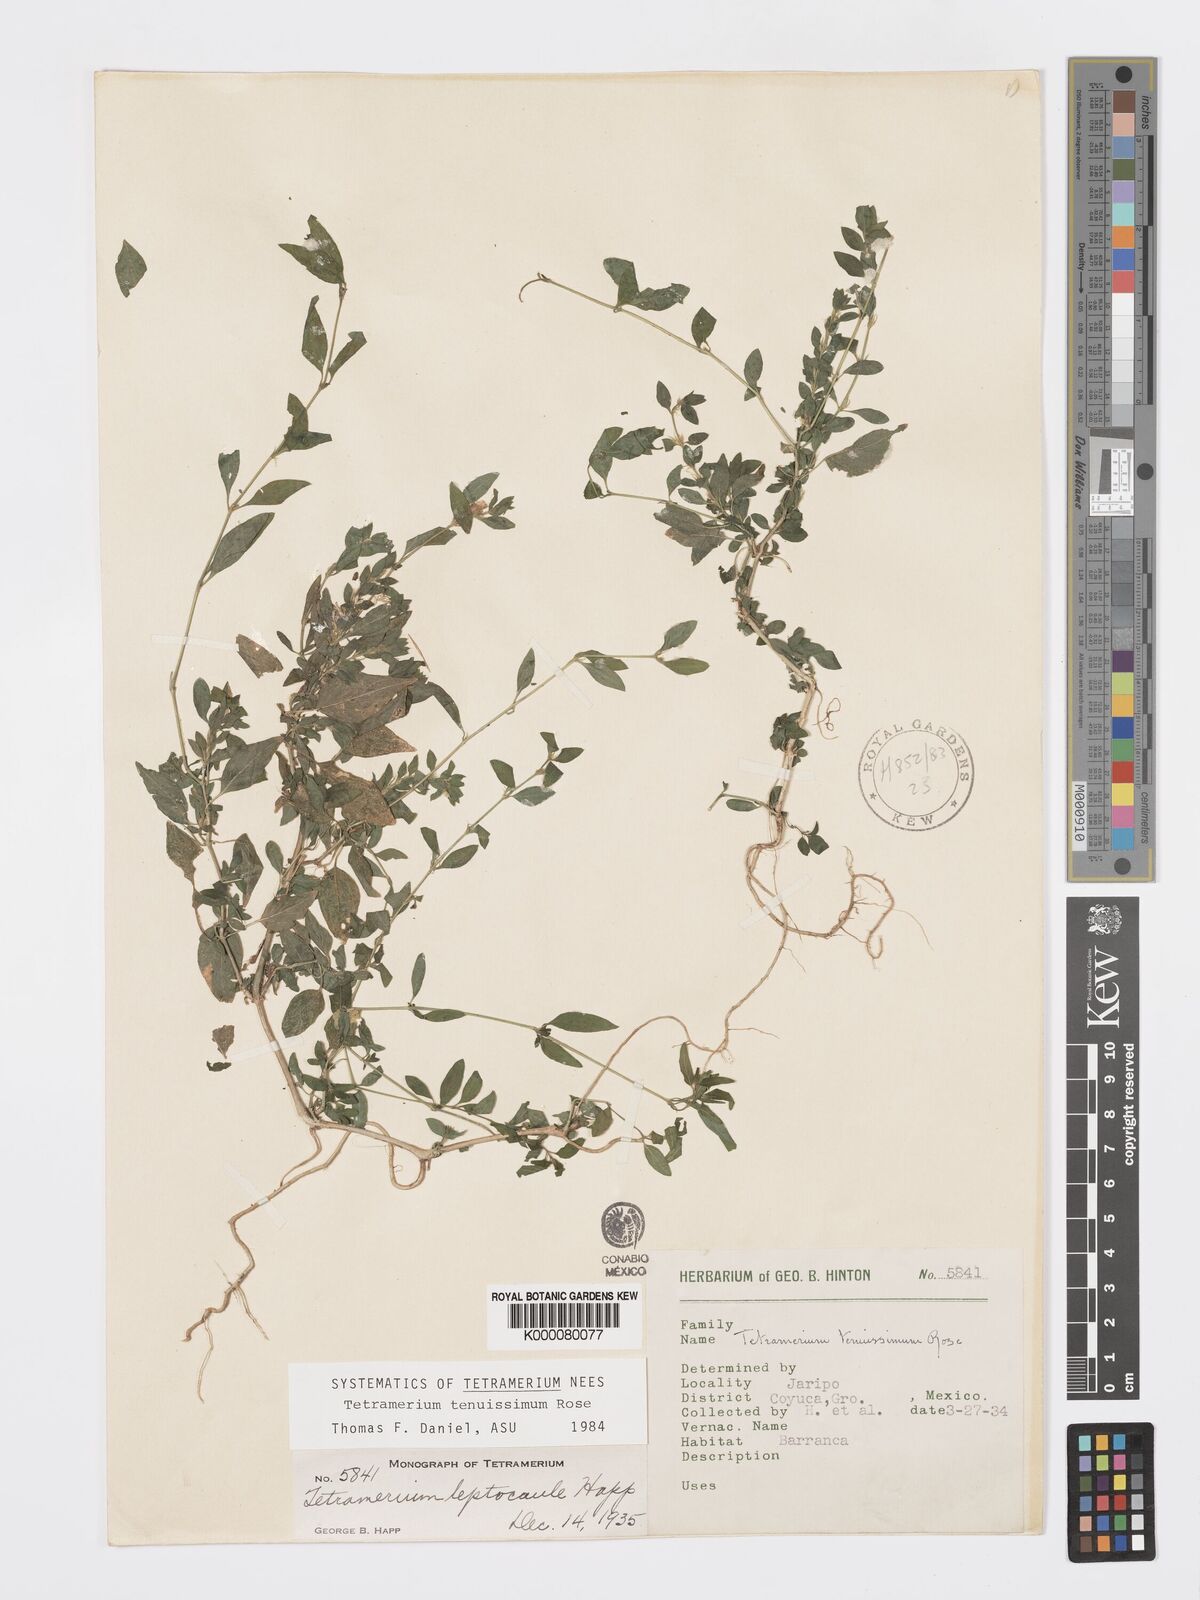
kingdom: Plantae
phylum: Tracheophyta
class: Magnoliopsida
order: Lamiales
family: Acanthaceae
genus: Tetramerium
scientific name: Tetramerium tenuissimum
